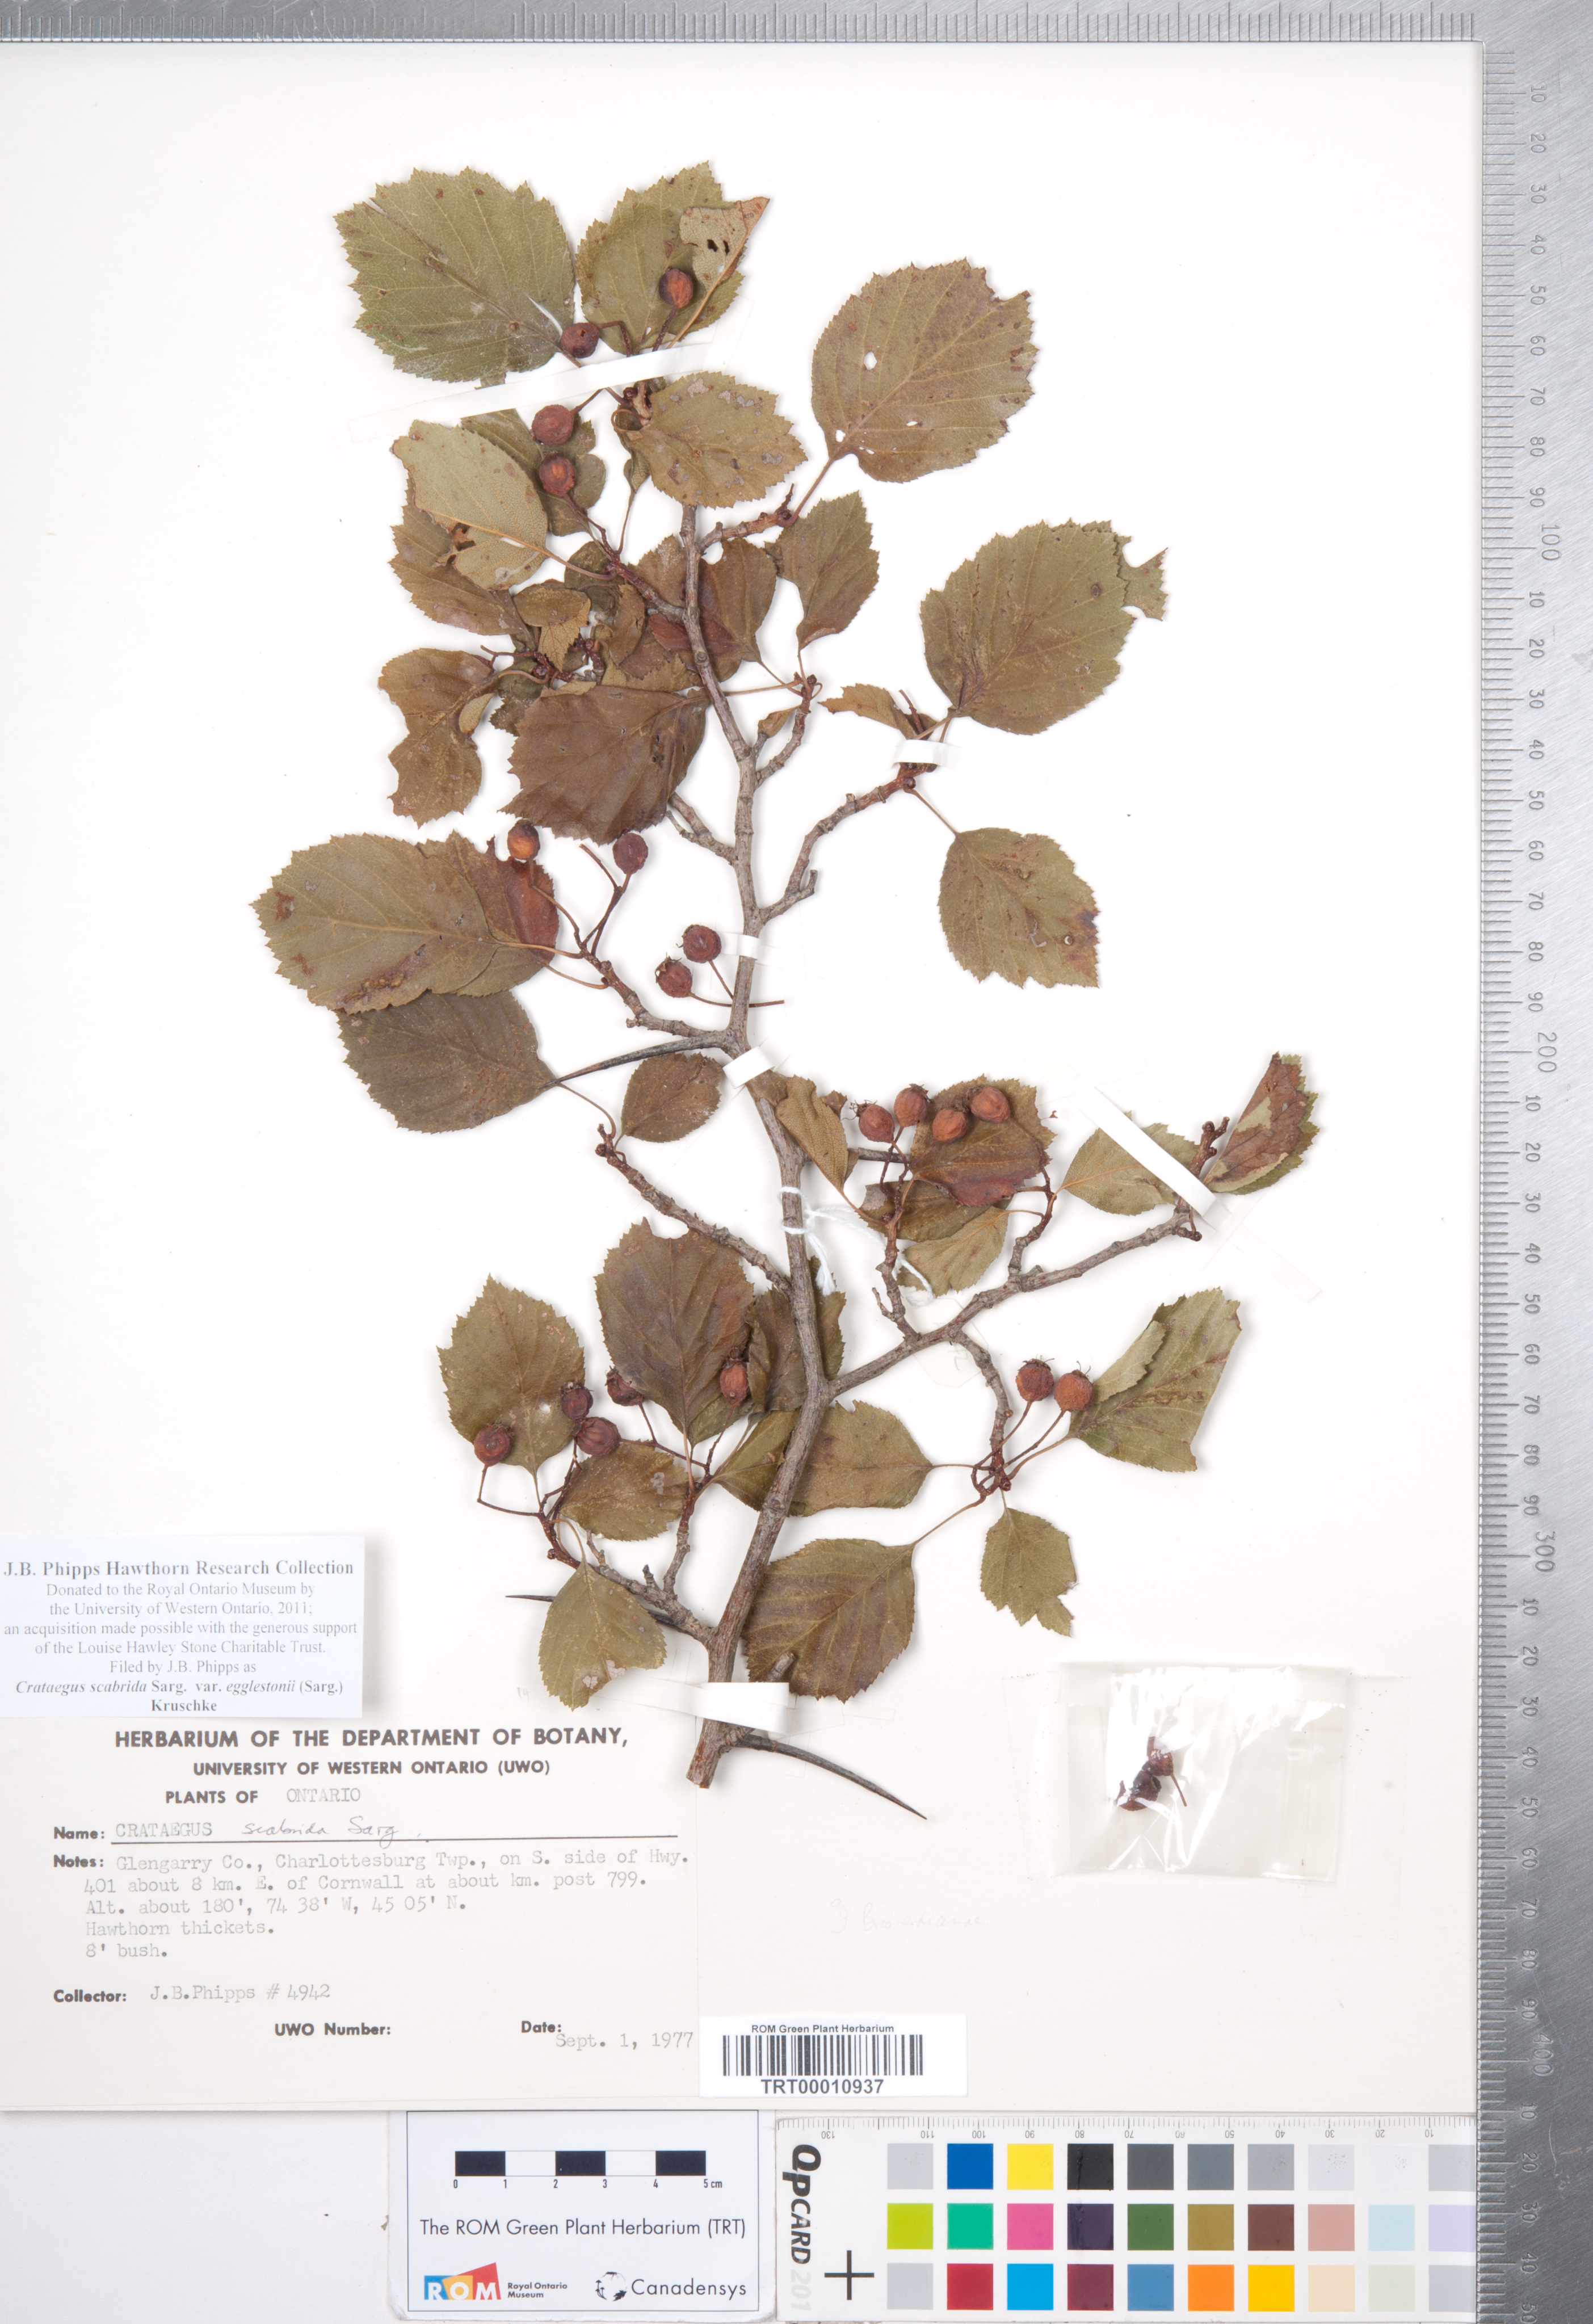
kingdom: Plantae
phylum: Tracheophyta
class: Magnoliopsida
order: Rosales
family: Rosaceae
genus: Crataegus
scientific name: Crataegus scabrida
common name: Rough hawthorn
